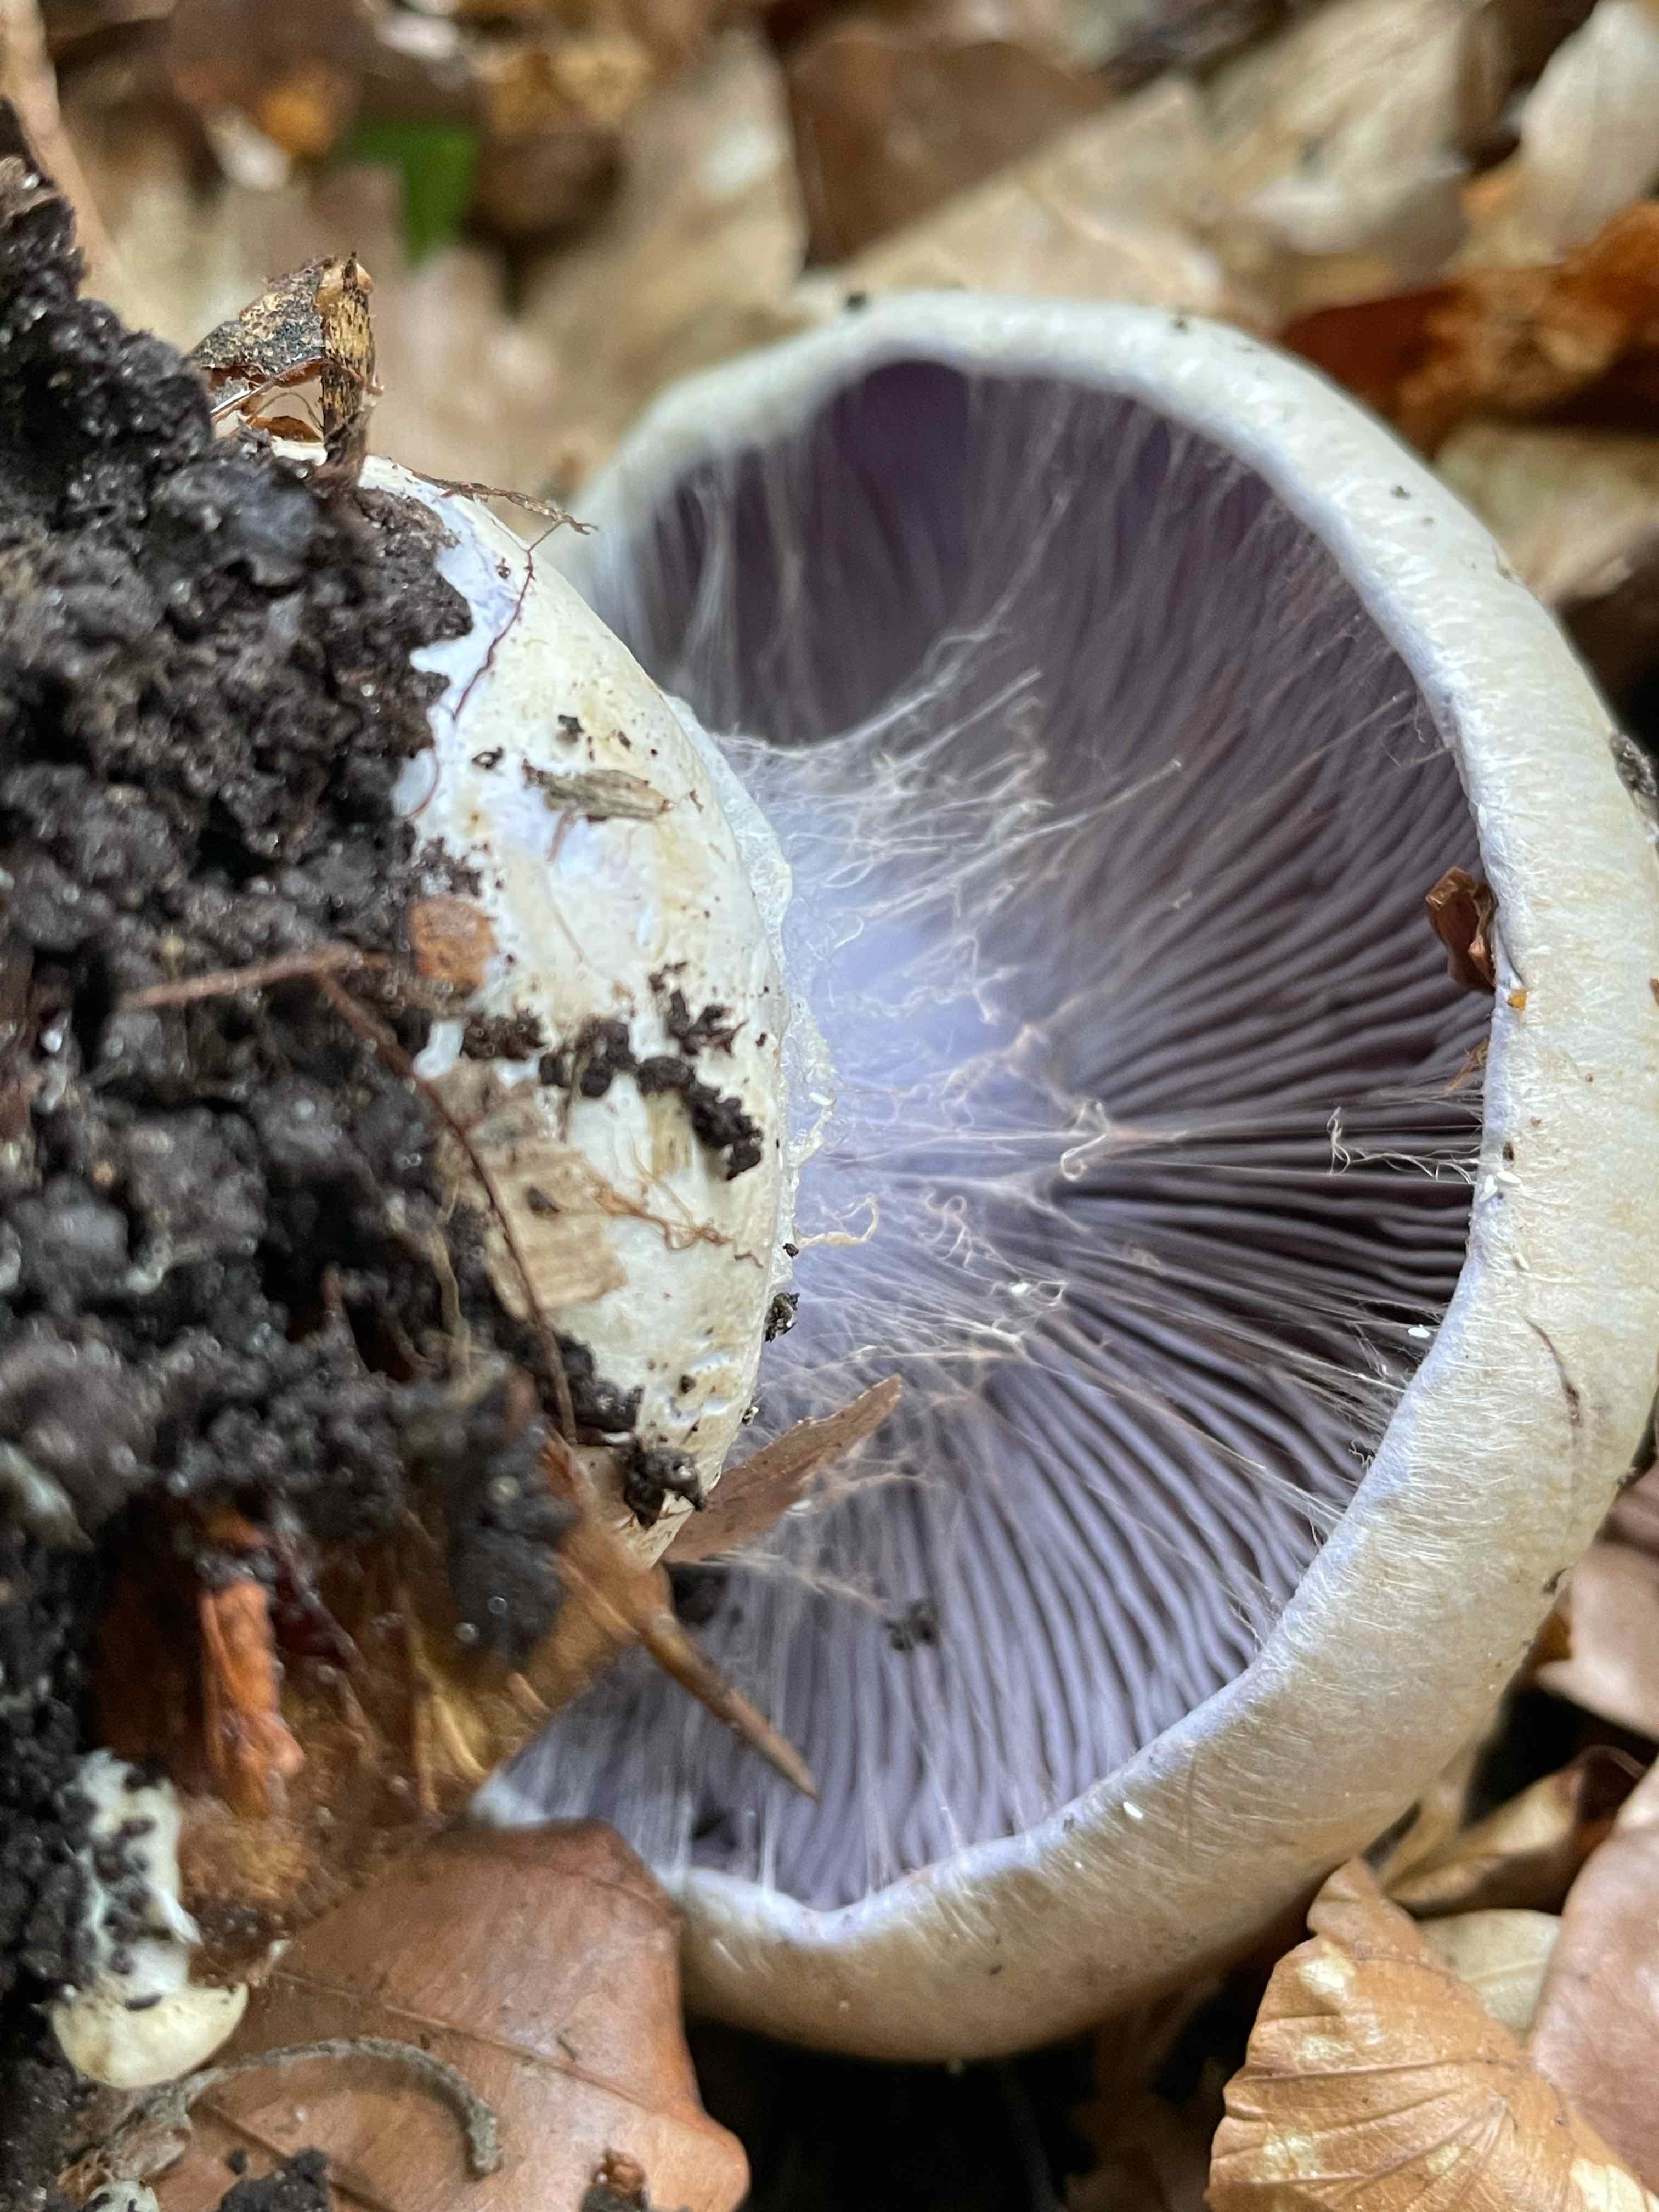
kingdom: Fungi
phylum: Basidiomycota
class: Agaricomycetes
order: Agaricales
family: Cortinariaceae
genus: Cortinarius
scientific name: Cortinarius anserinus
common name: bøge-slørhat
